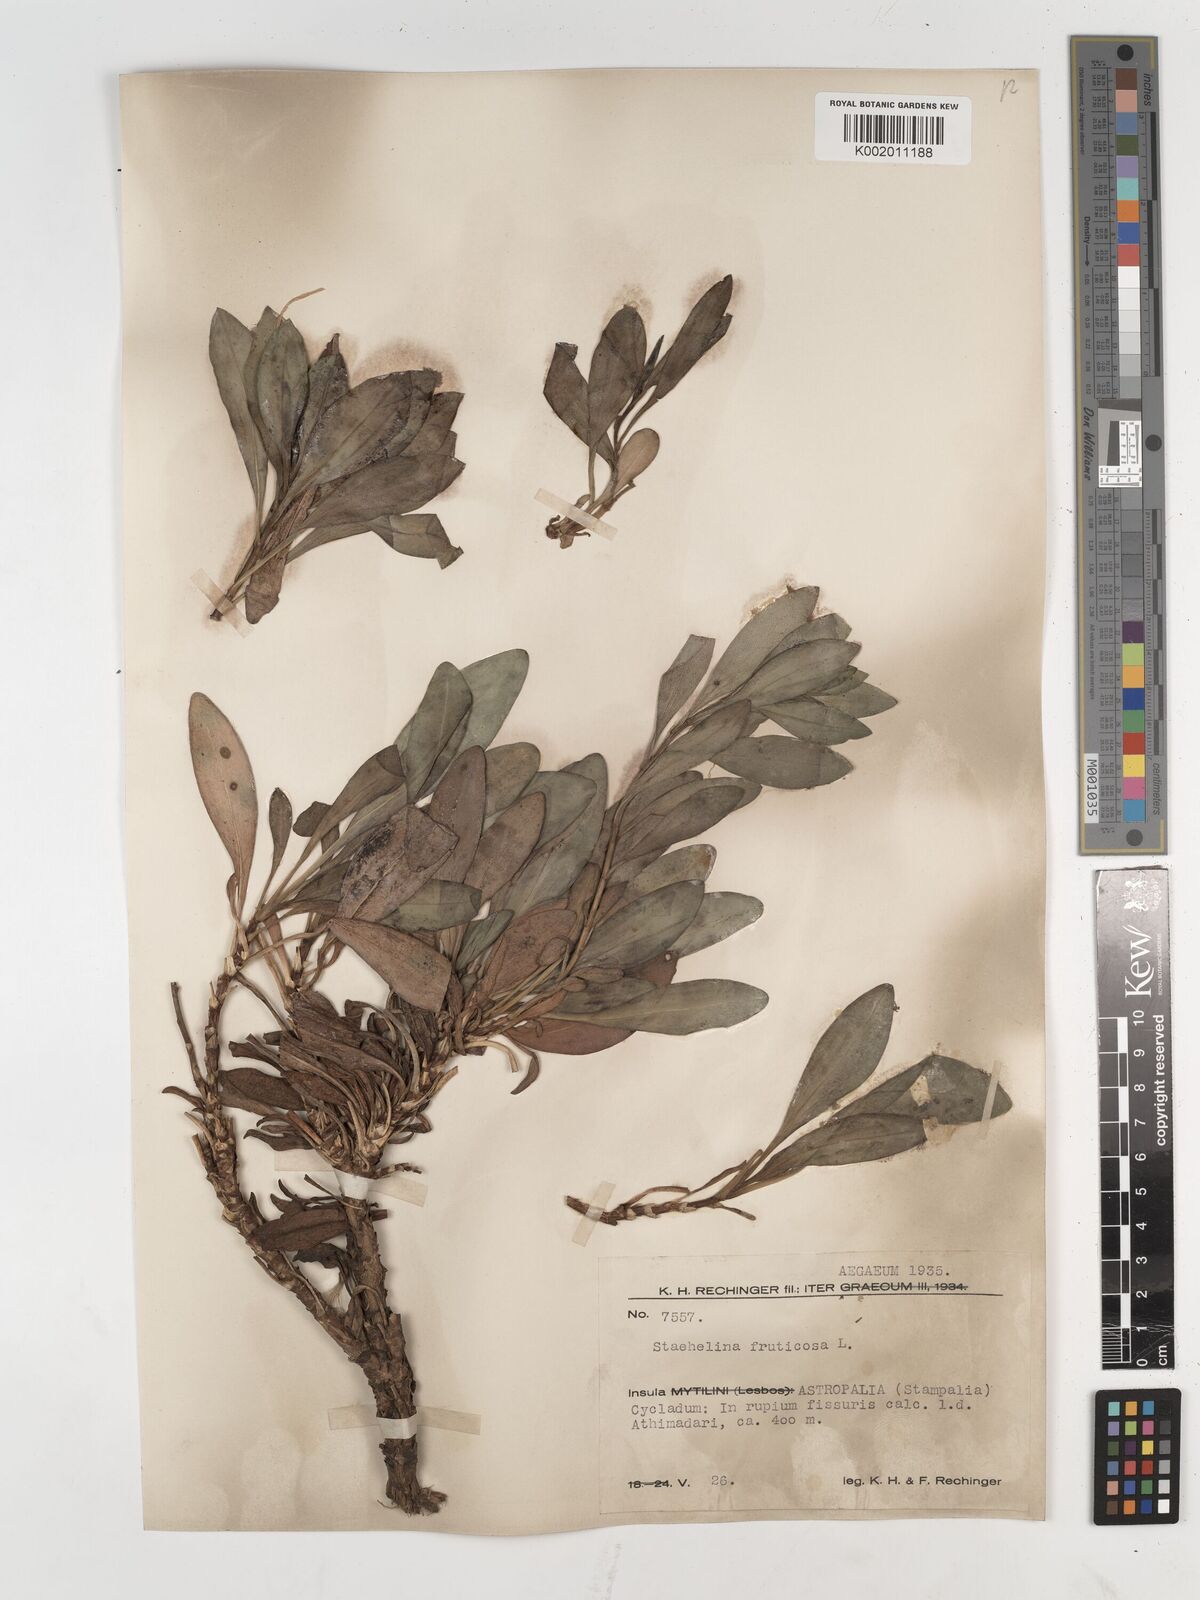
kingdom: Plantae
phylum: Tracheophyta
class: Magnoliopsida
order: Asterales
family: Asteraceae
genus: Hirtellina
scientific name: Hirtellina fruticosa
